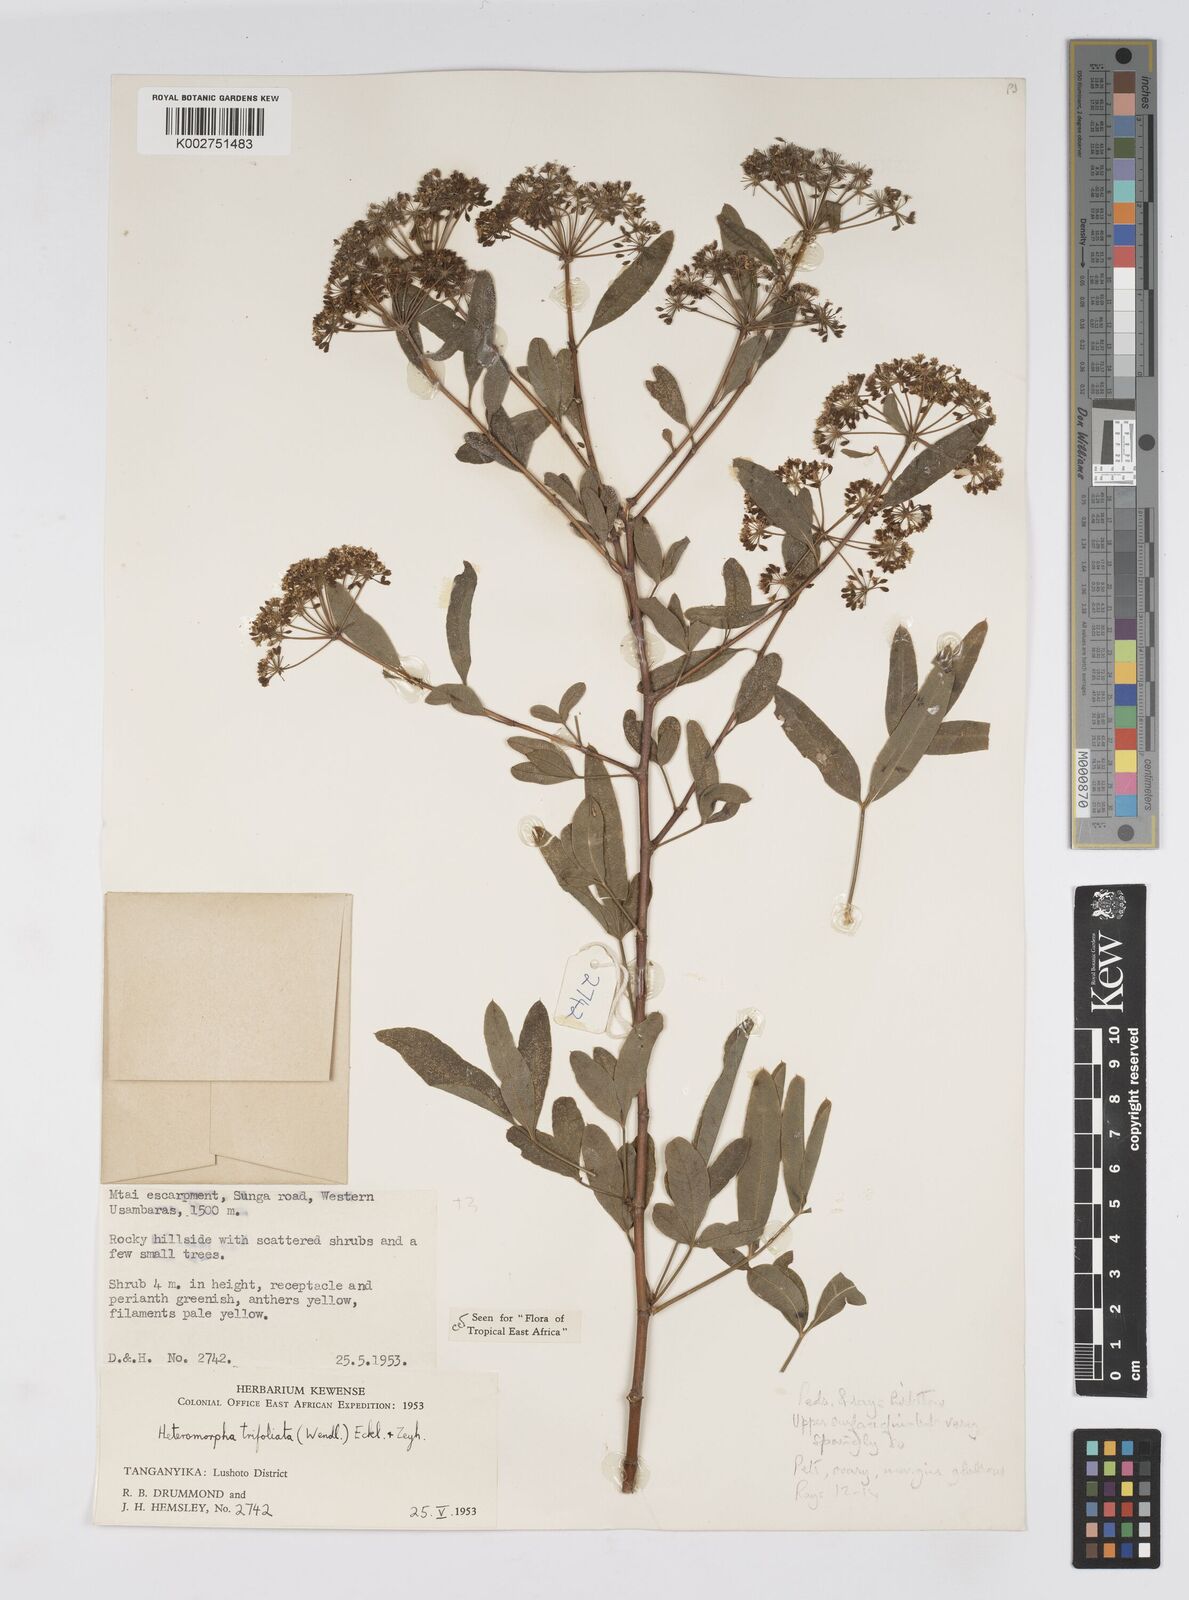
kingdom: Plantae
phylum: Tracheophyta
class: Magnoliopsida
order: Apiales
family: Apiaceae
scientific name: Apiaceae
